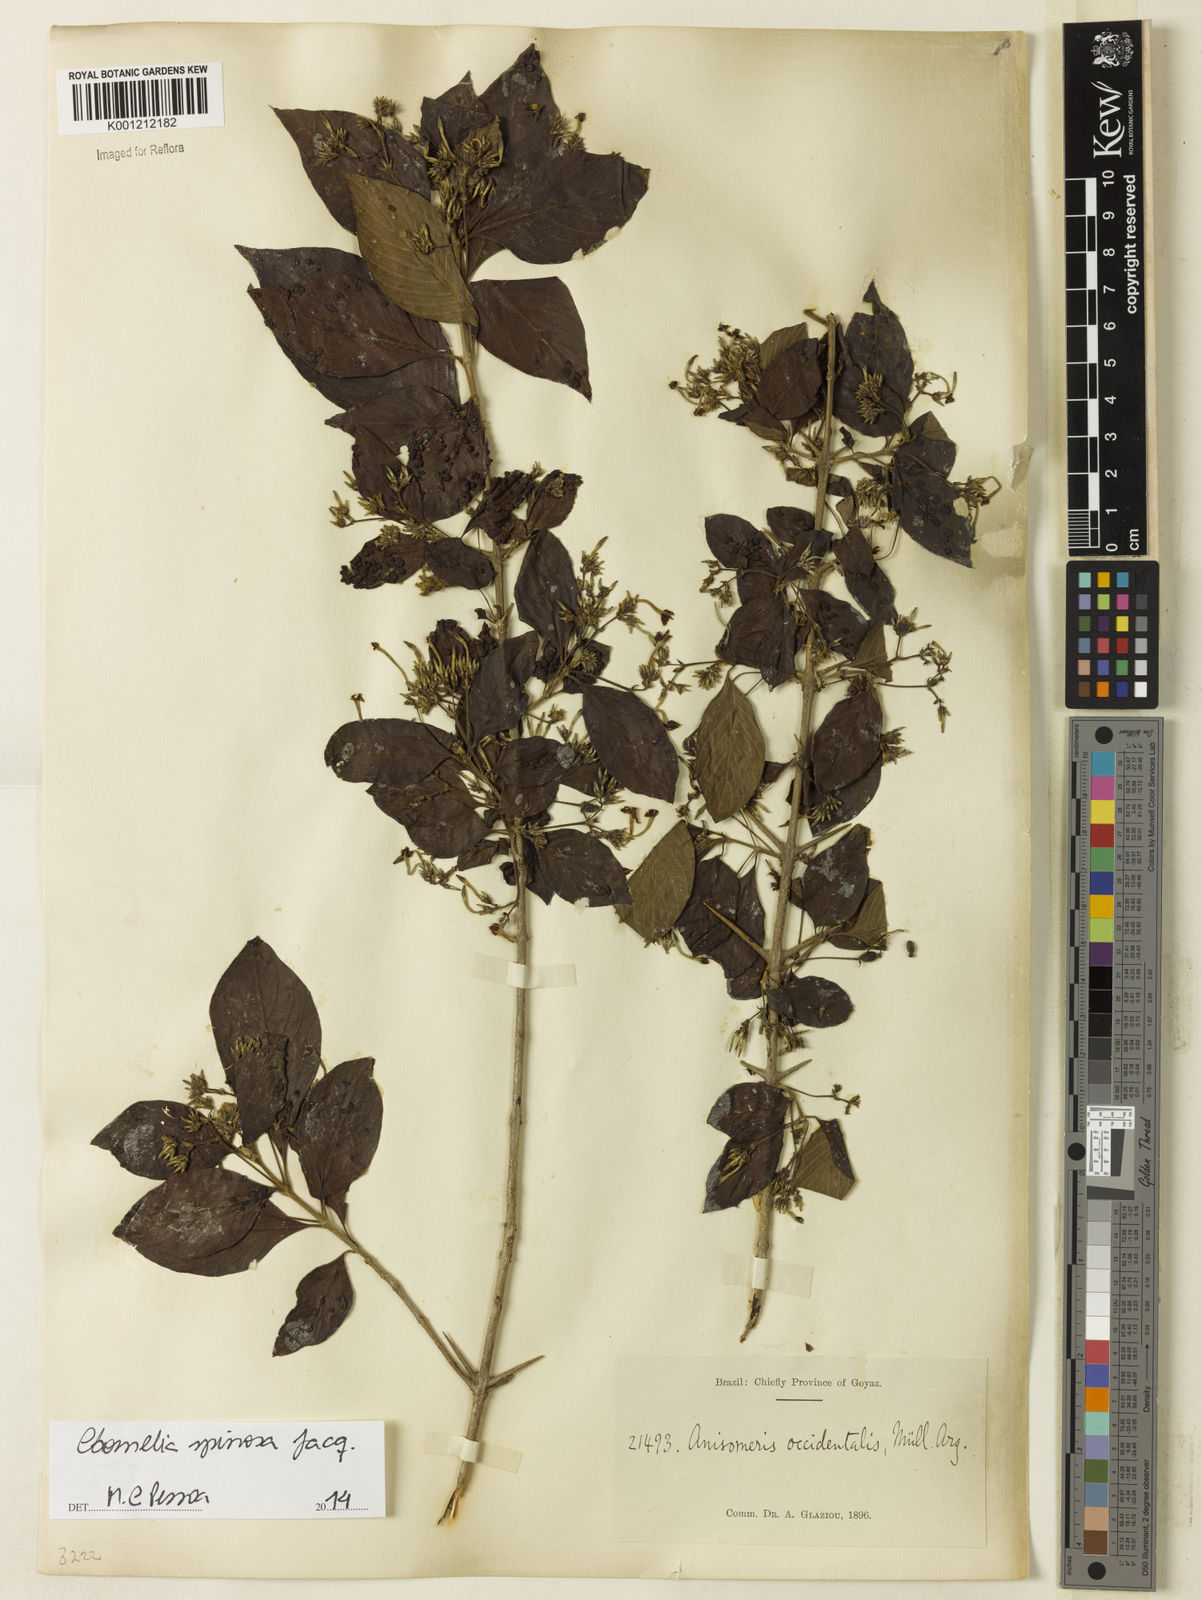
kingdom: Plantae
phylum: Tracheophyta
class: Magnoliopsida
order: Gentianales
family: Rubiaceae
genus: Chomelia
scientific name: Chomelia spinosa
